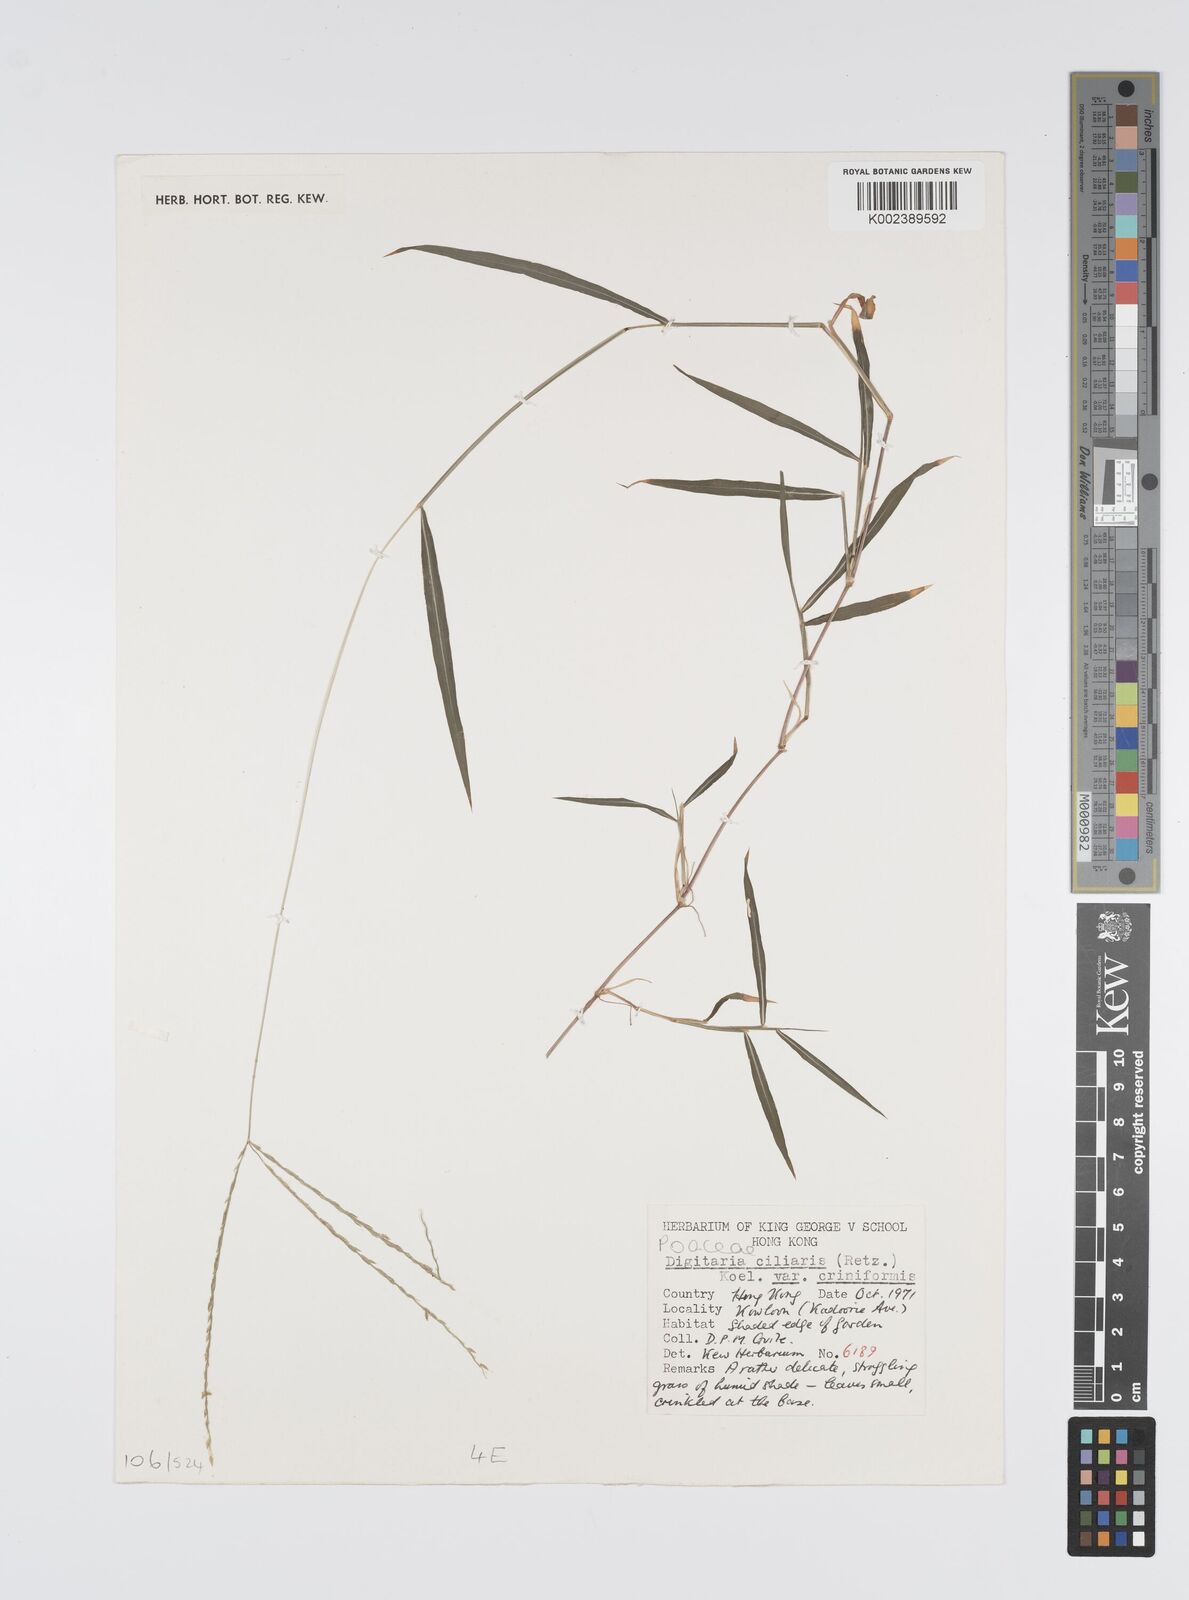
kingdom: Plantae
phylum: Tracheophyta
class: Liliopsida
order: Poales
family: Poaceae
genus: Digitaria
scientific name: Digitaria ciliaris
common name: Tropical finger-grass
